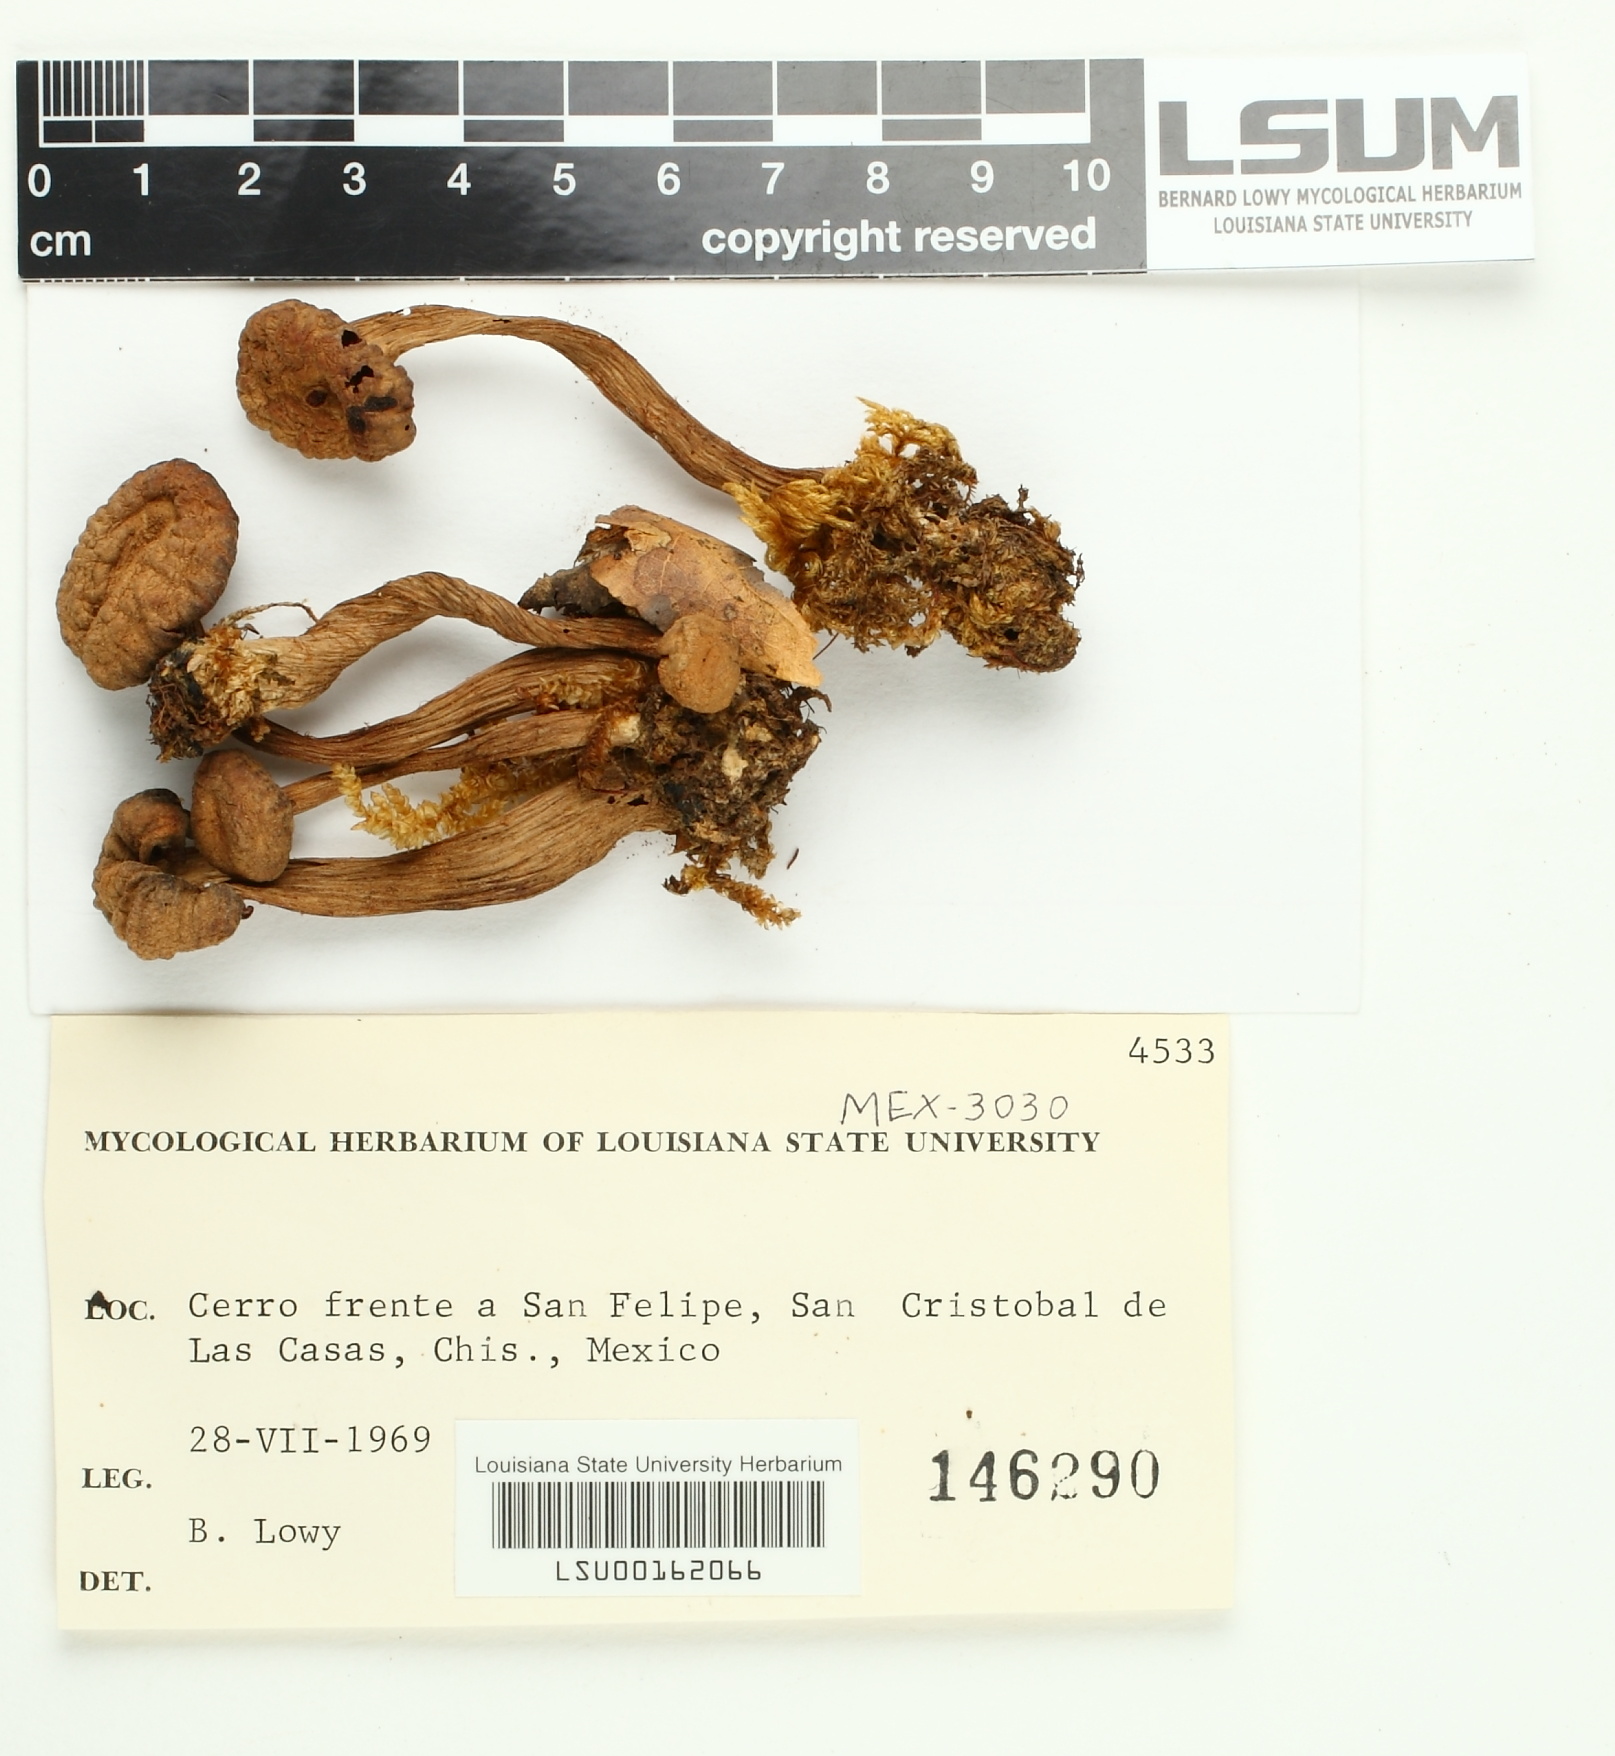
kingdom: Fungi
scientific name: Fungi
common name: Fungi
